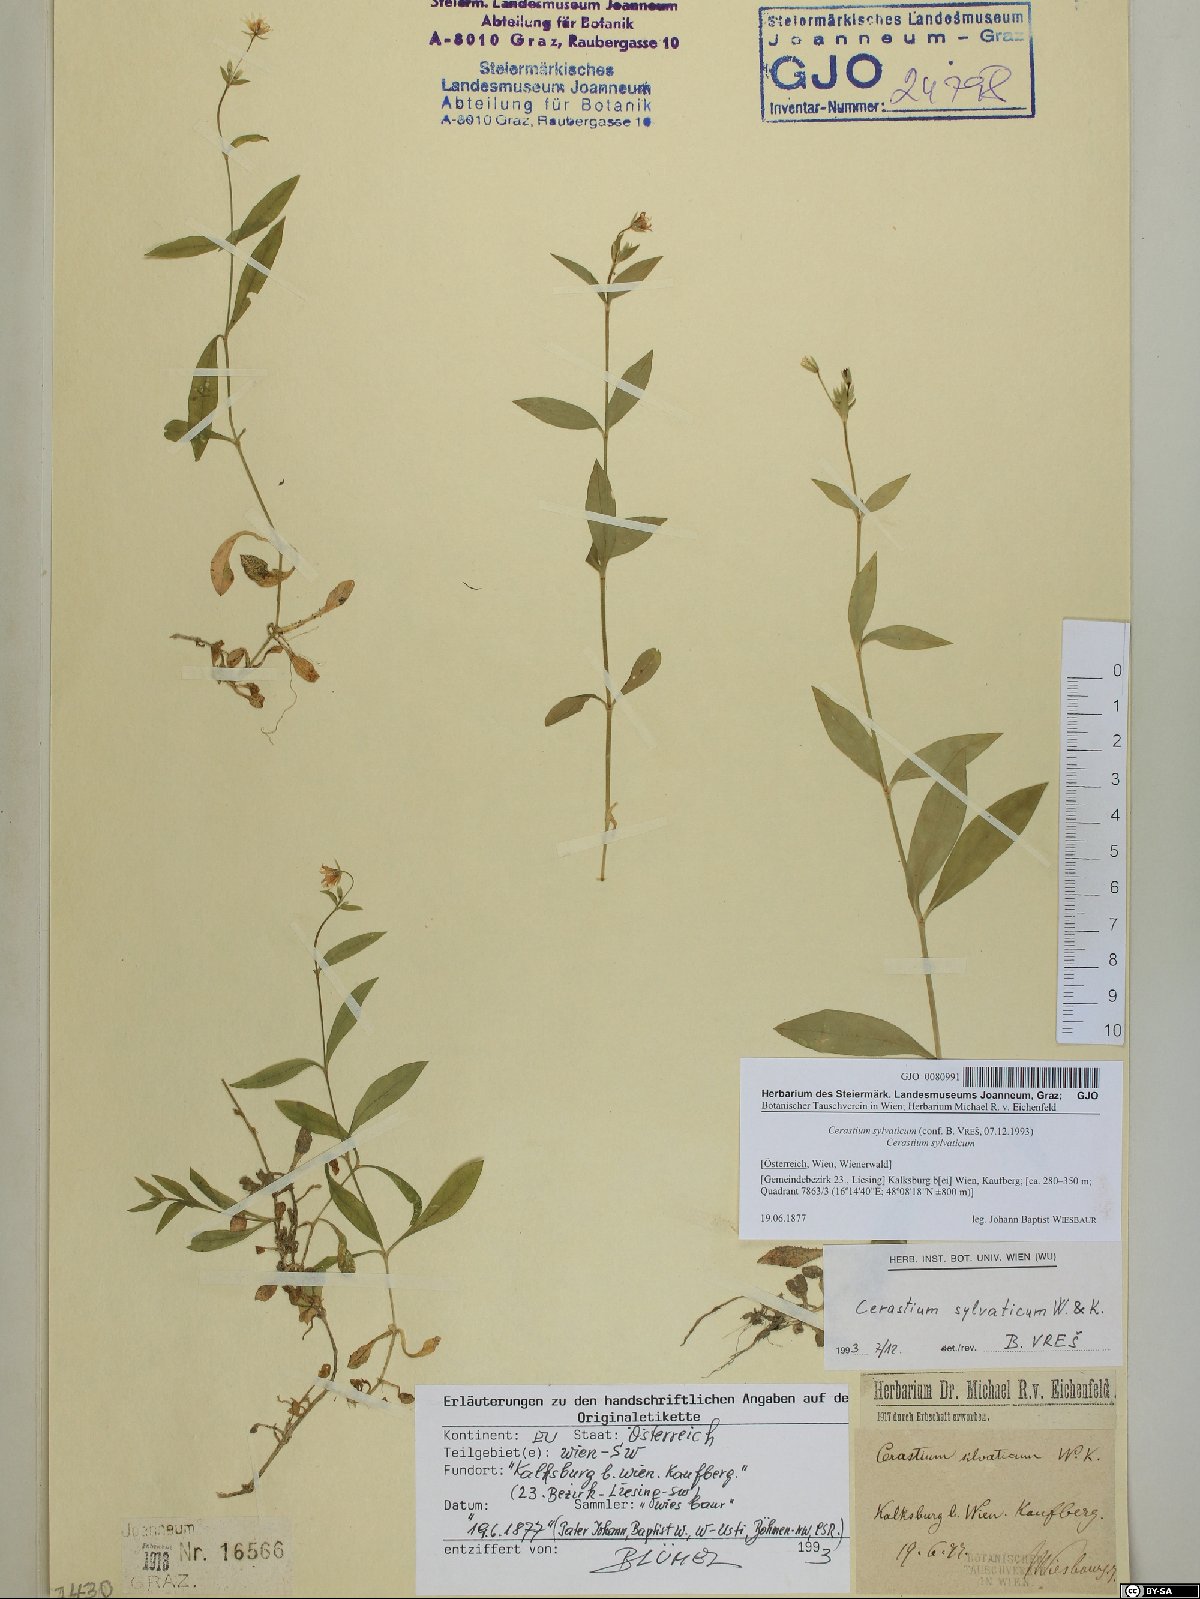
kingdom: Plantae
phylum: Tracheophyta
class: Magnoliopsida
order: Caryophyllales
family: Caryophyllaceae
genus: Cerastium
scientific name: Cerastium sylvaticum
